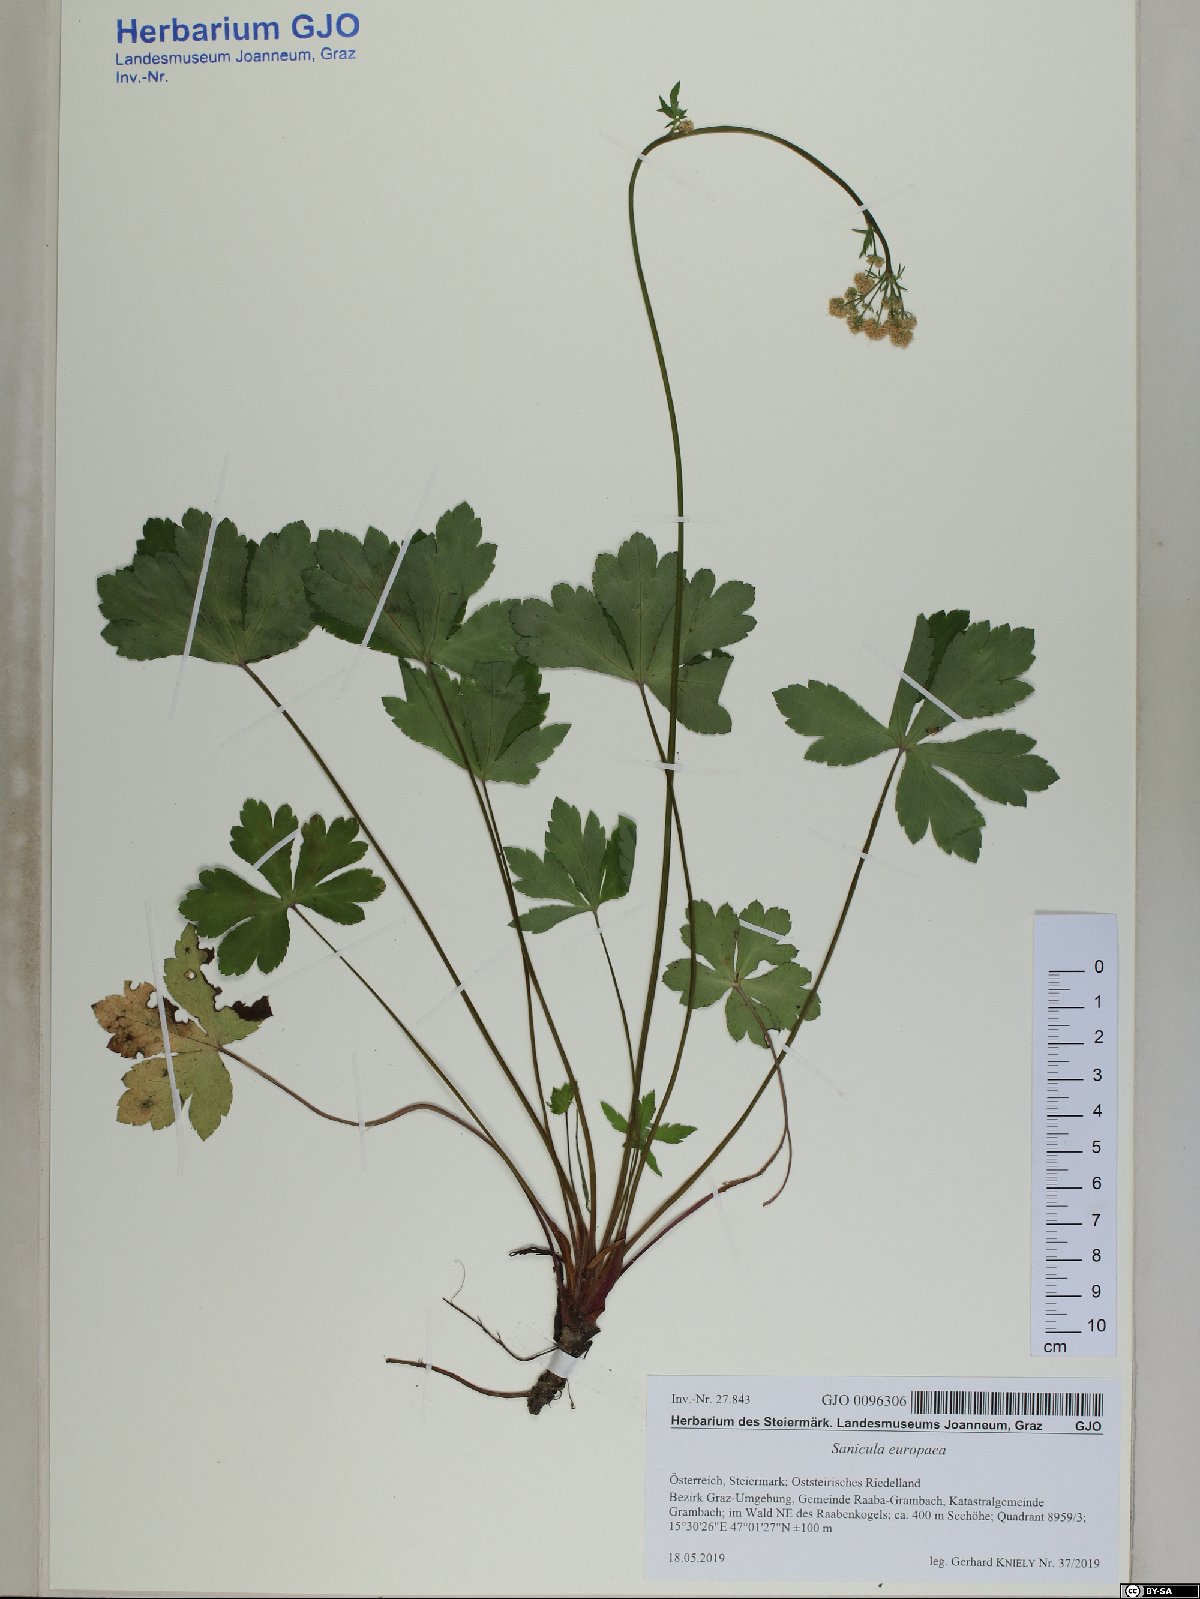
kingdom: Plantae
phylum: Tracheophyta
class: Magnoliopsida
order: Apiales
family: Apiaceae
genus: Sanicula
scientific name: Sanicula europaea
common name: Sanicle
